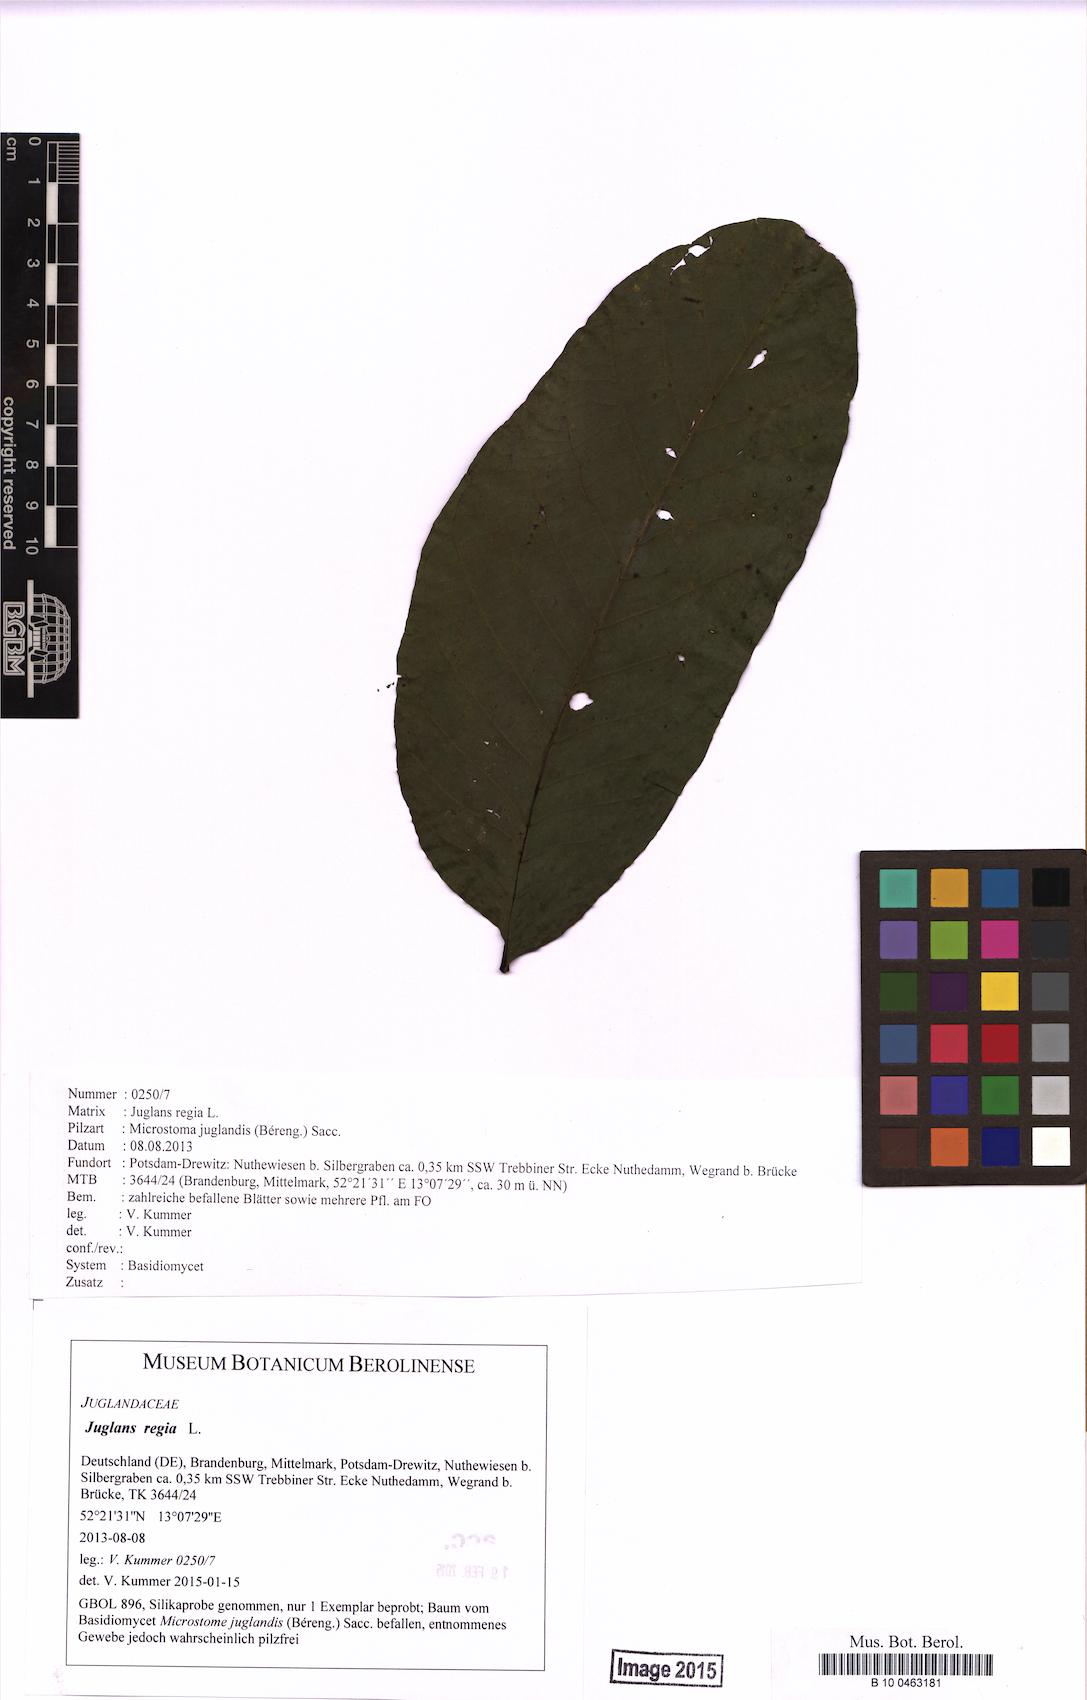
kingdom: Plantae
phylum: Tracheophyta
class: Magnoliopsida
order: Fagales
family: Juglandaceae
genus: Juglans
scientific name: Juglans regia
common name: Walnut
